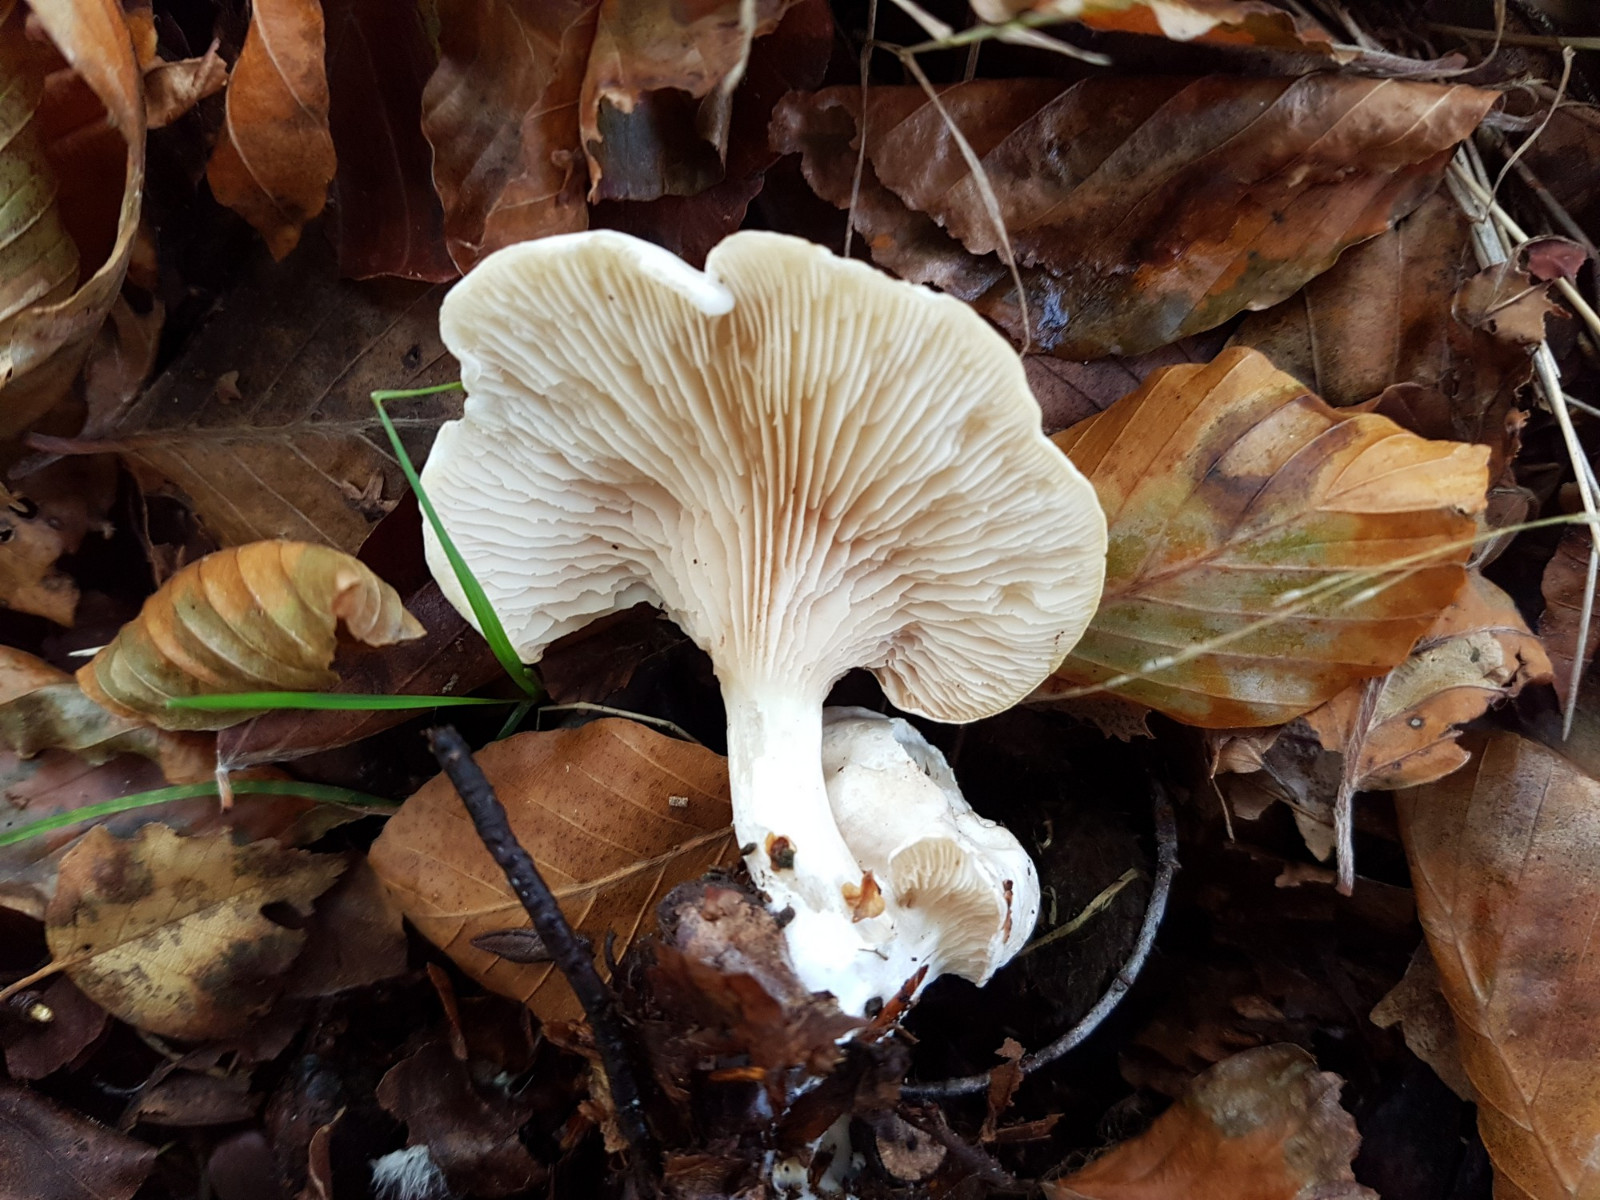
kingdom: Fungi
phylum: Basidiomycota
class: Agaricomycetes
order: Agaricales
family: Entolomataceae
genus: Clitopilus
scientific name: Clitopilus prunulus
